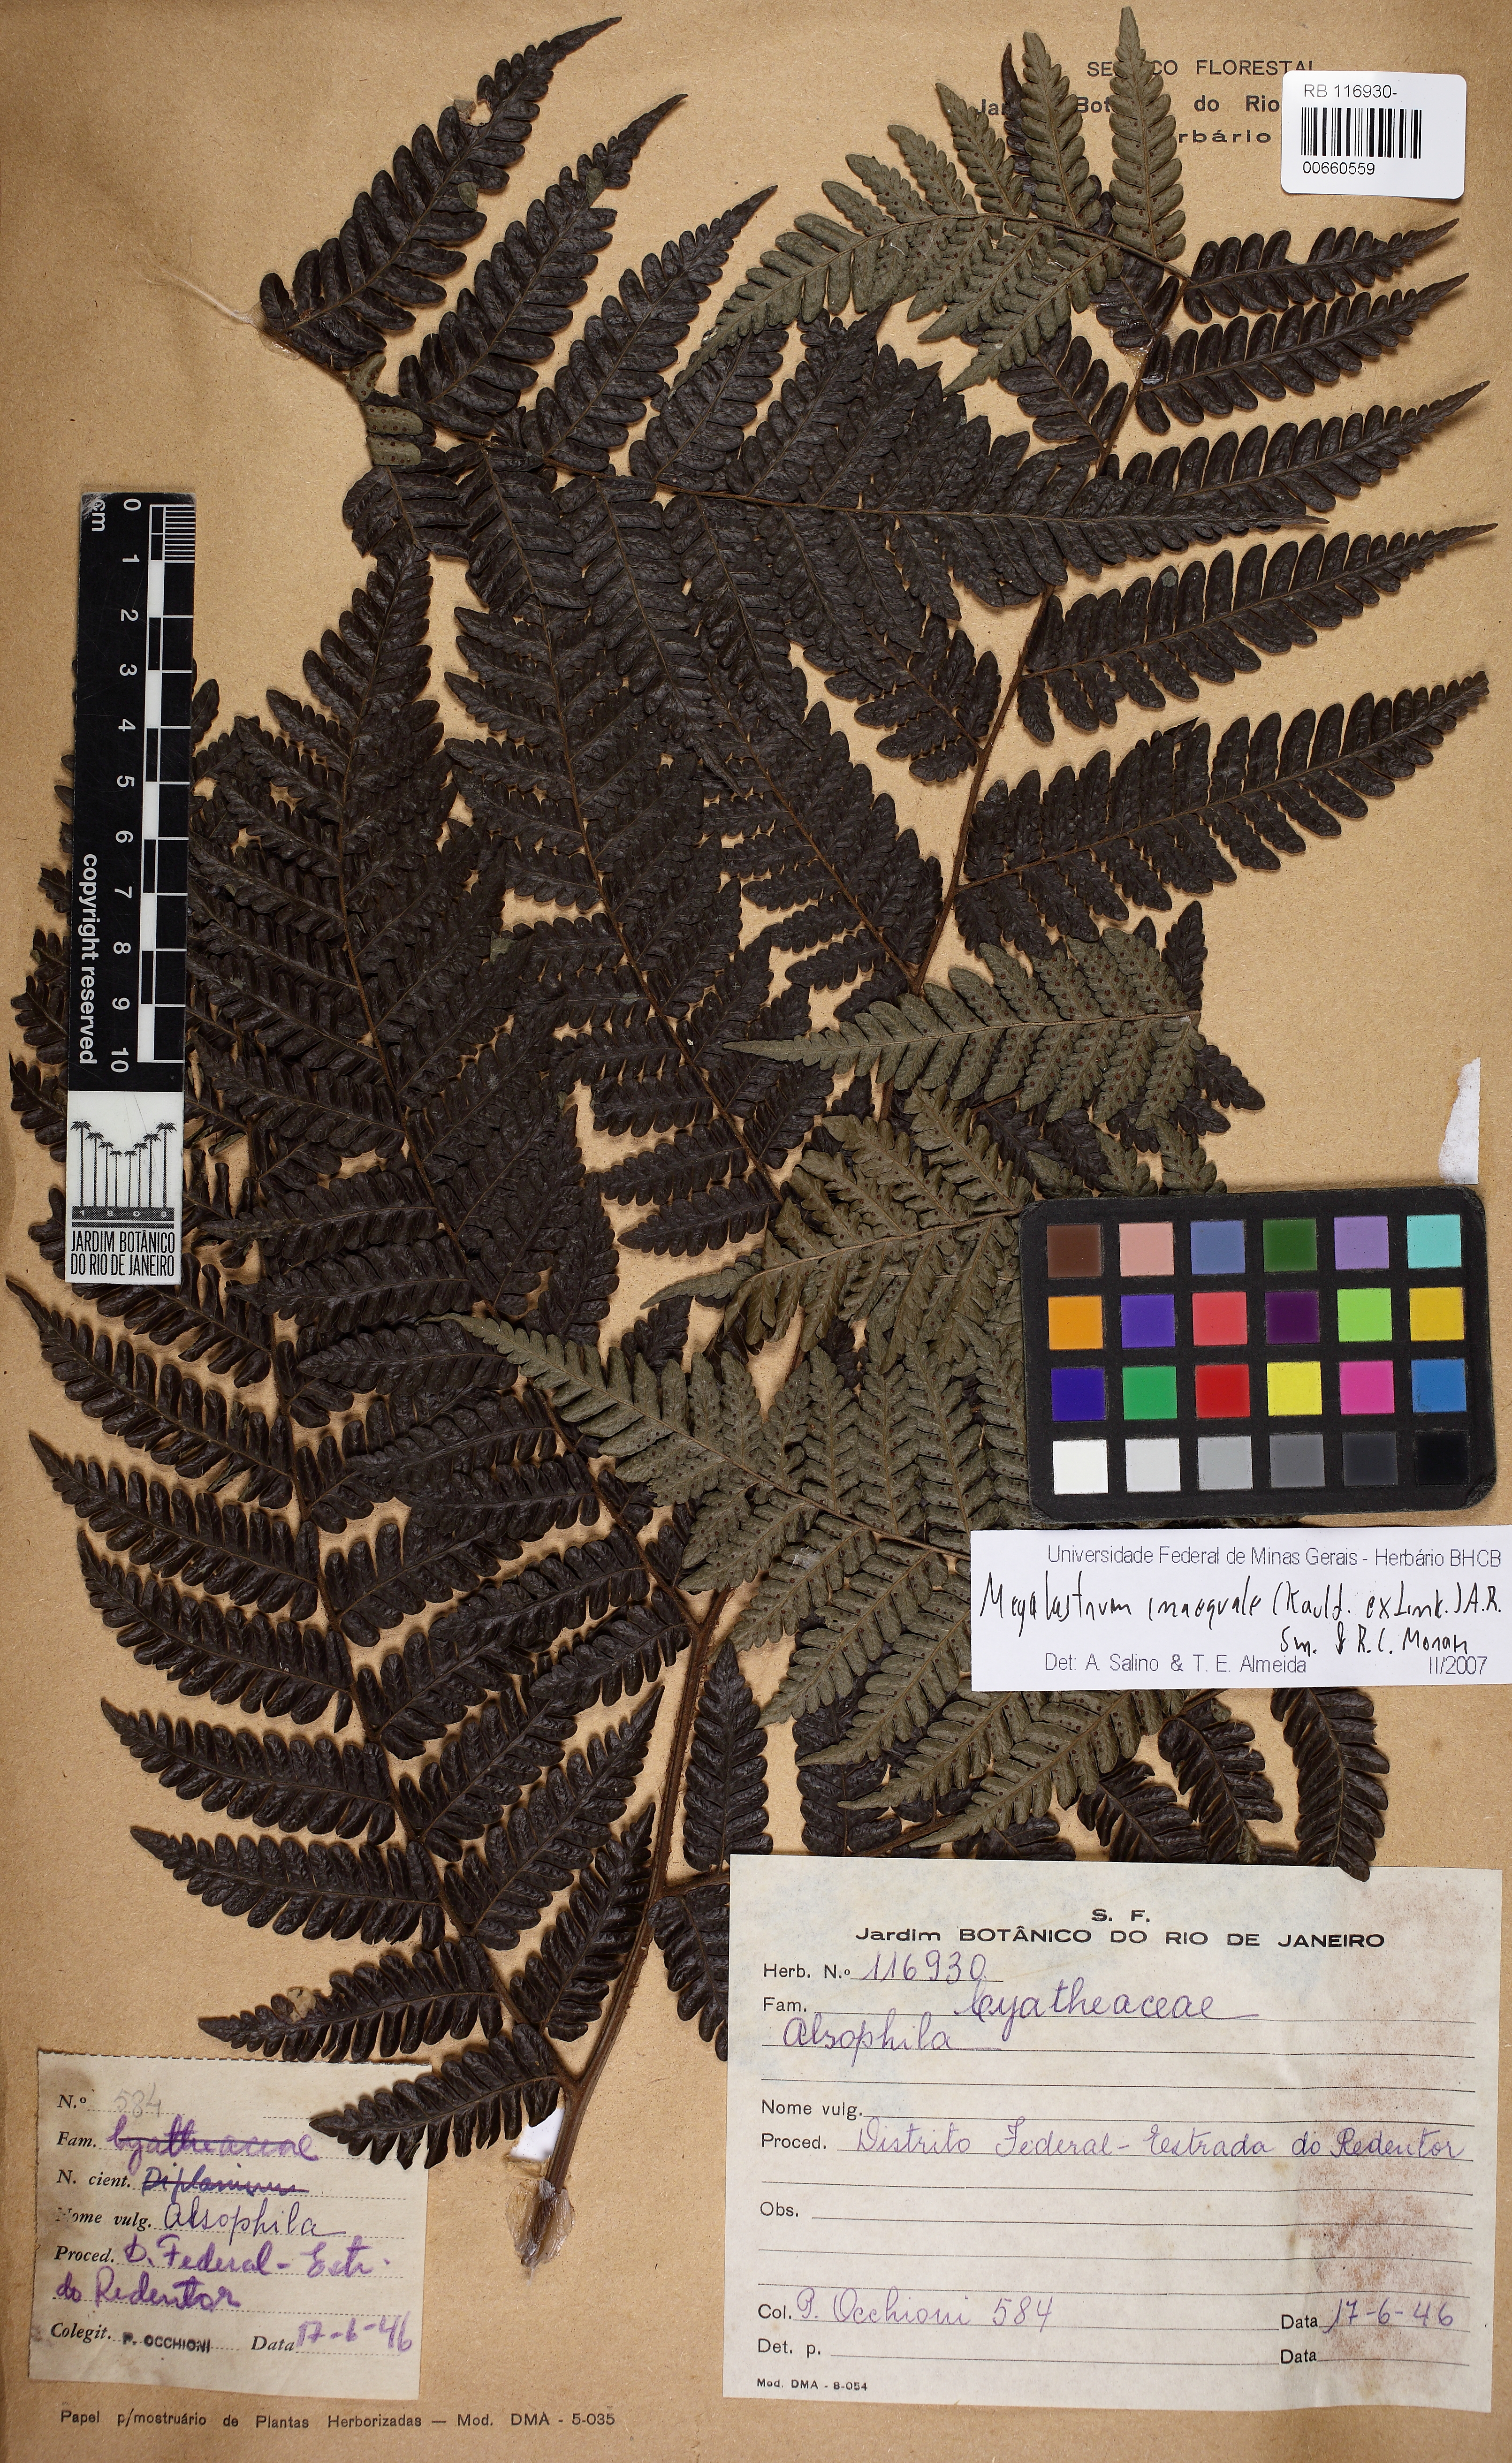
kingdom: Plantae
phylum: Tracheophyta
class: Polypodiopsida
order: Polypodiales
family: Dryopteridaceae
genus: Megalastrum
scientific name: Megalastrum inaequale
